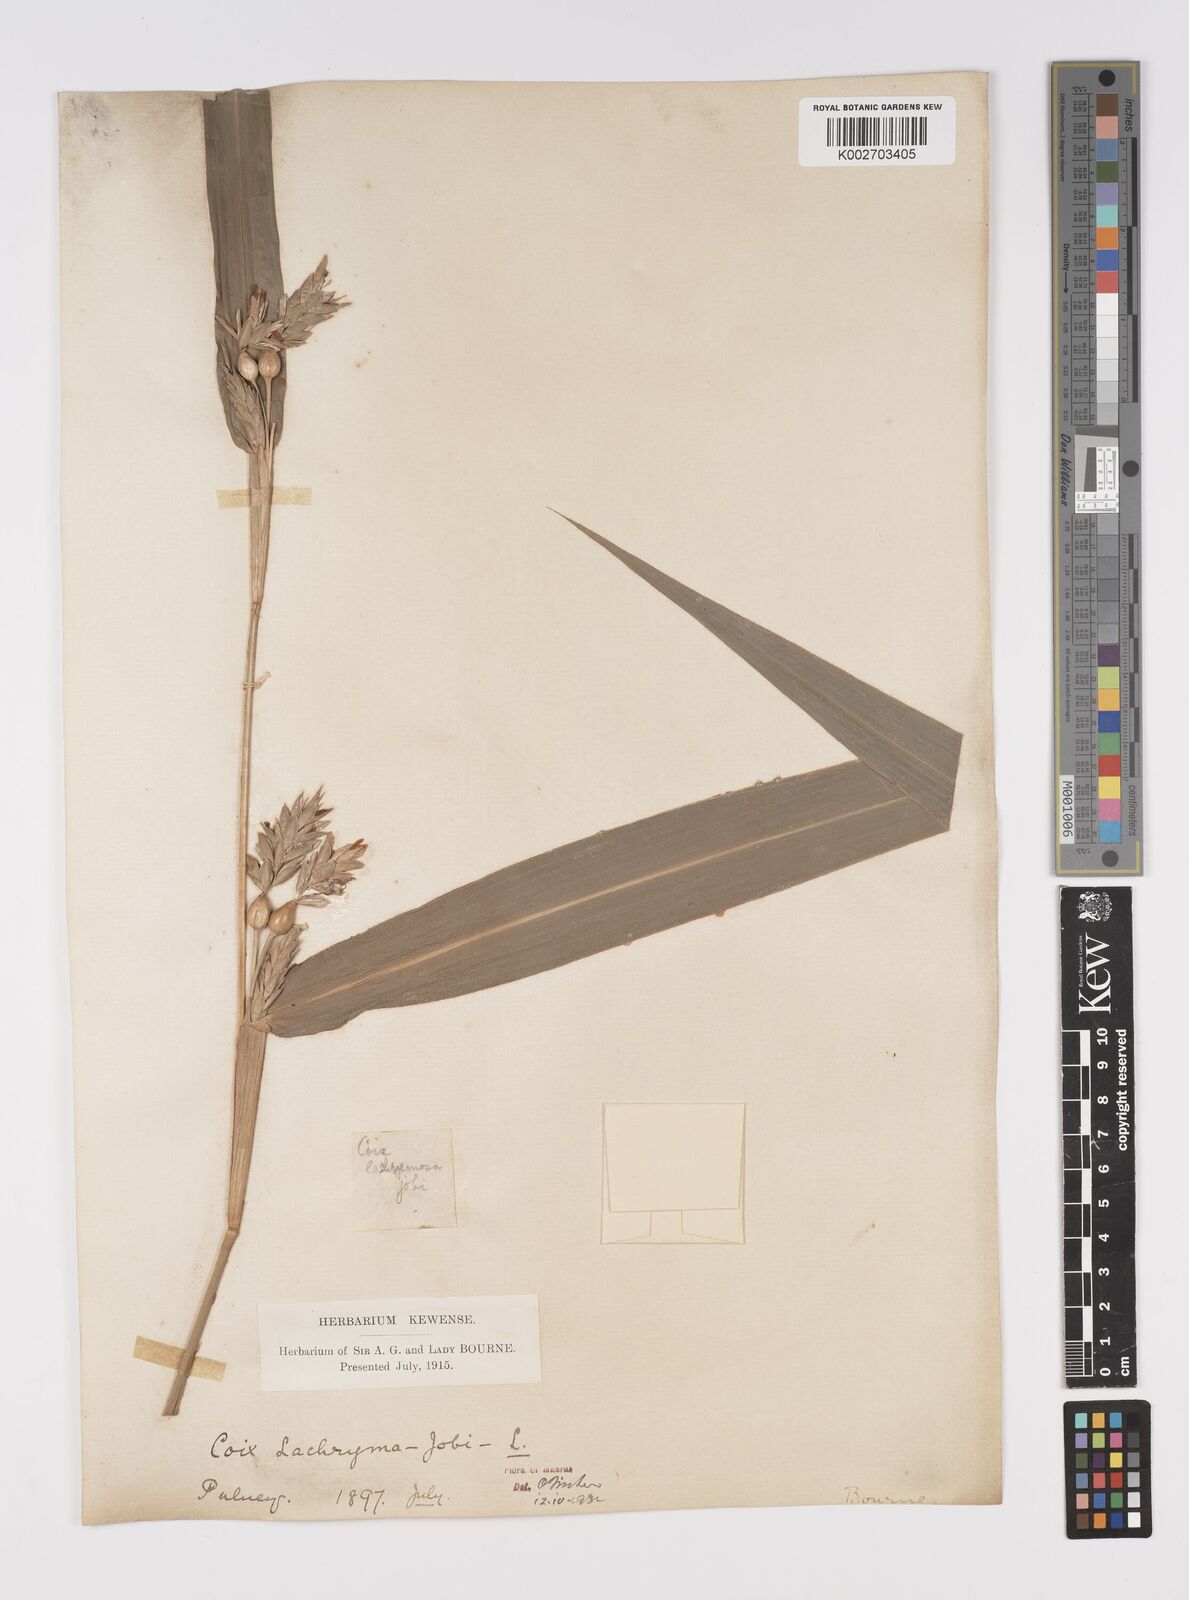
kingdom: Plantae
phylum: Tracheophyta
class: Liliopsida
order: Poales
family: Poaceae
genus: Coix
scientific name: Coix lacryma-jobi
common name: Job's tears
